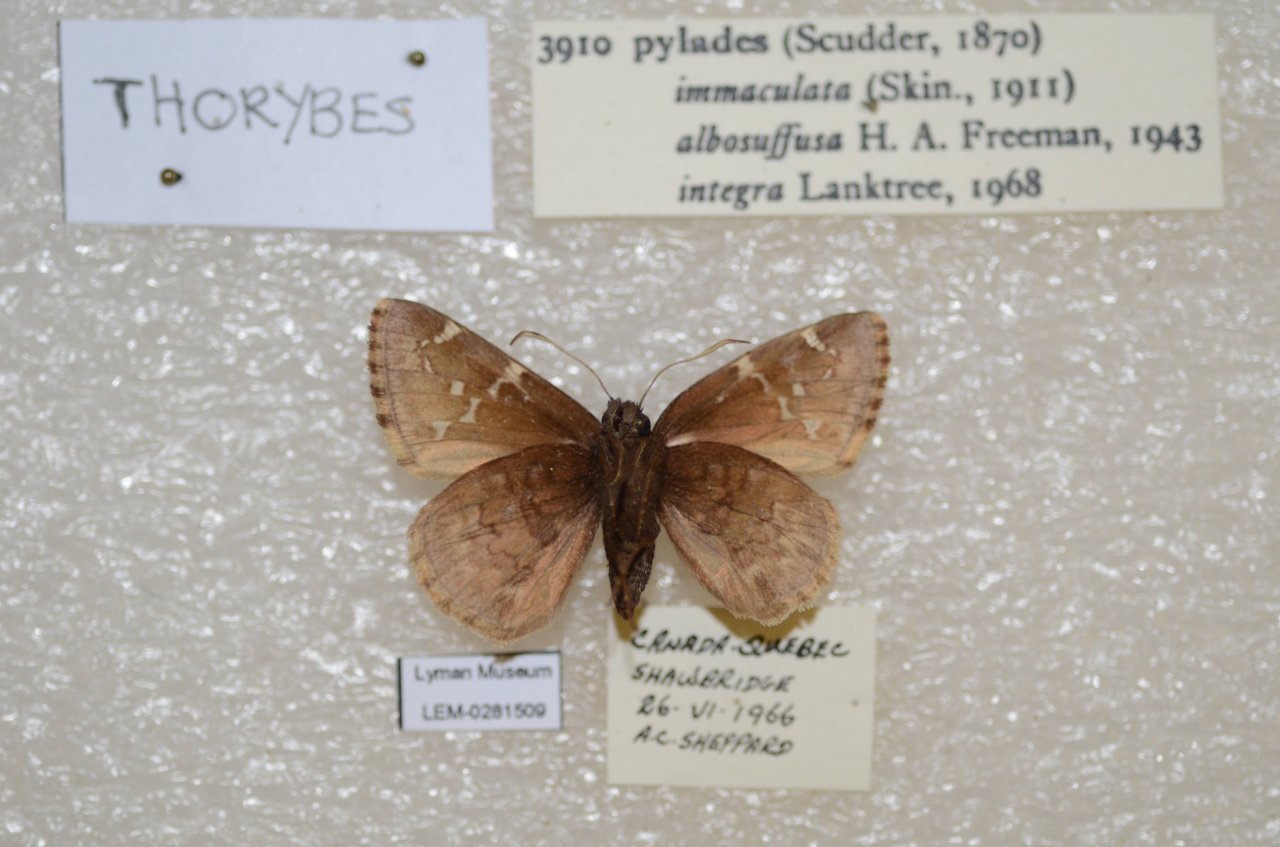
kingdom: Animalia
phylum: Arthropoda
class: Insecta
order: Lepidoptera
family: Hesperiidae
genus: Autochton
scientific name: Autochton
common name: Northern Cloudywing
